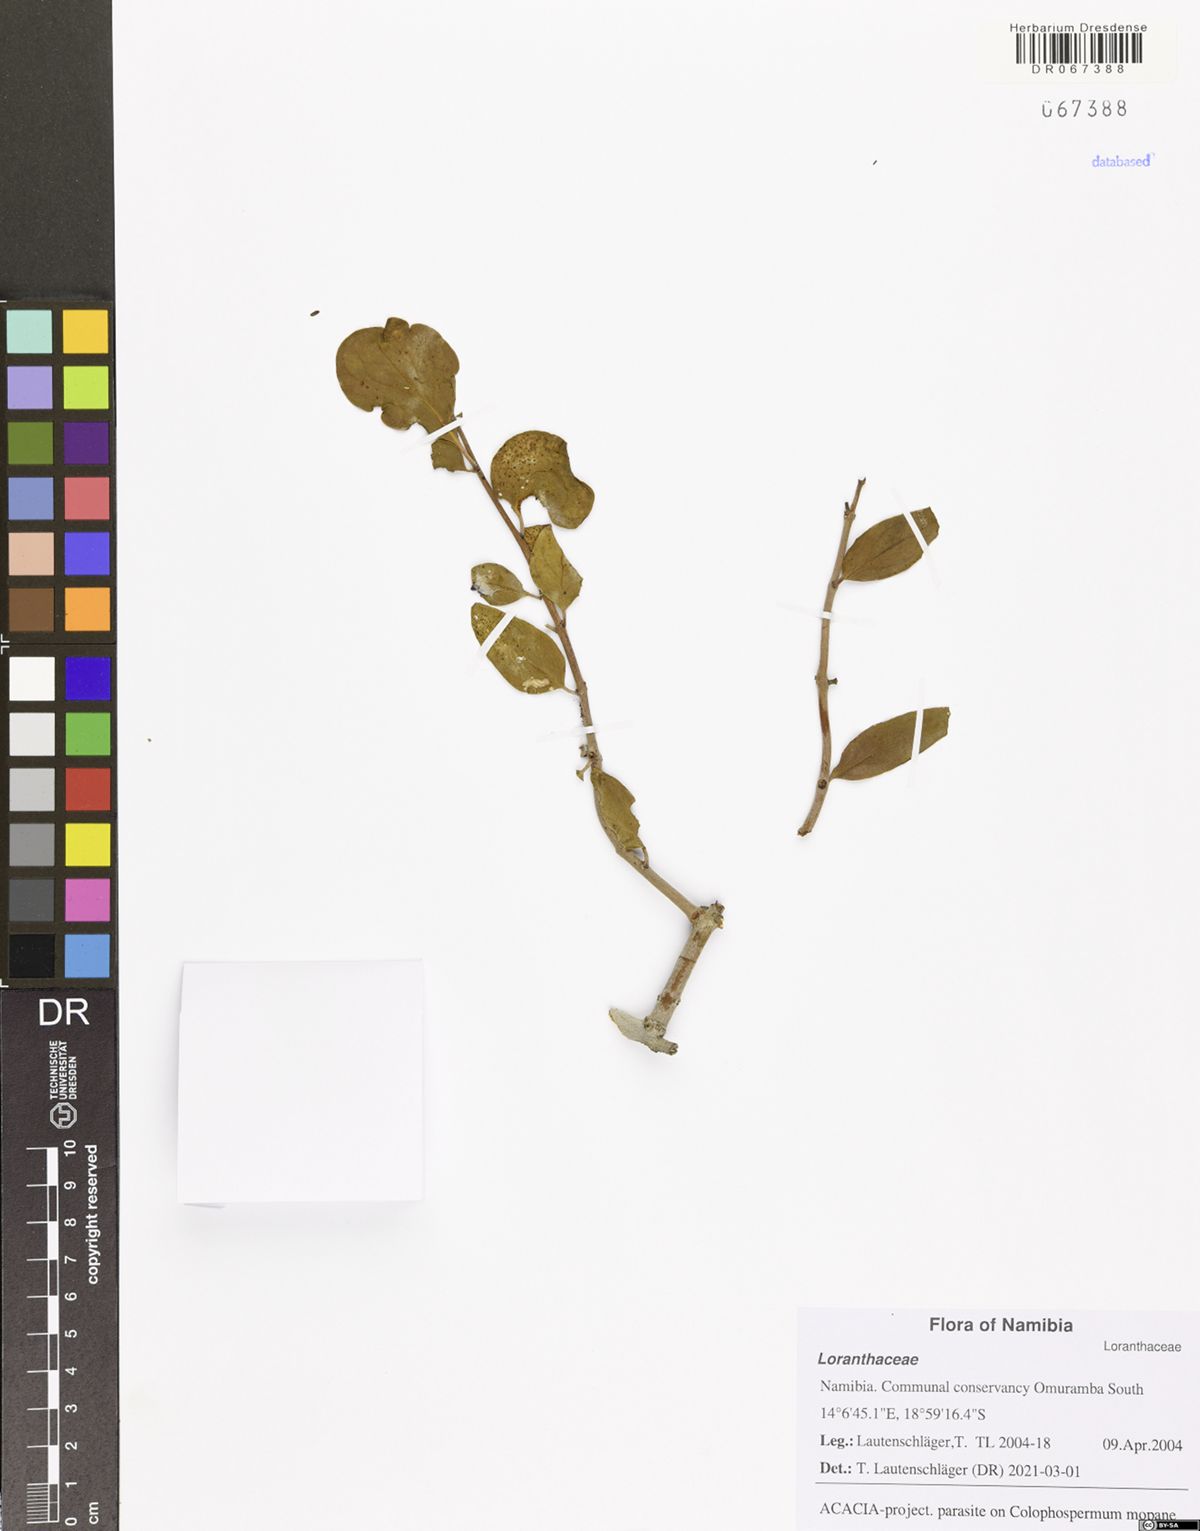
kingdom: Plantae
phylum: Tracheophyta
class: Magnoliopsida
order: Santalales
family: Loranthaceae
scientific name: Loranthaceae
